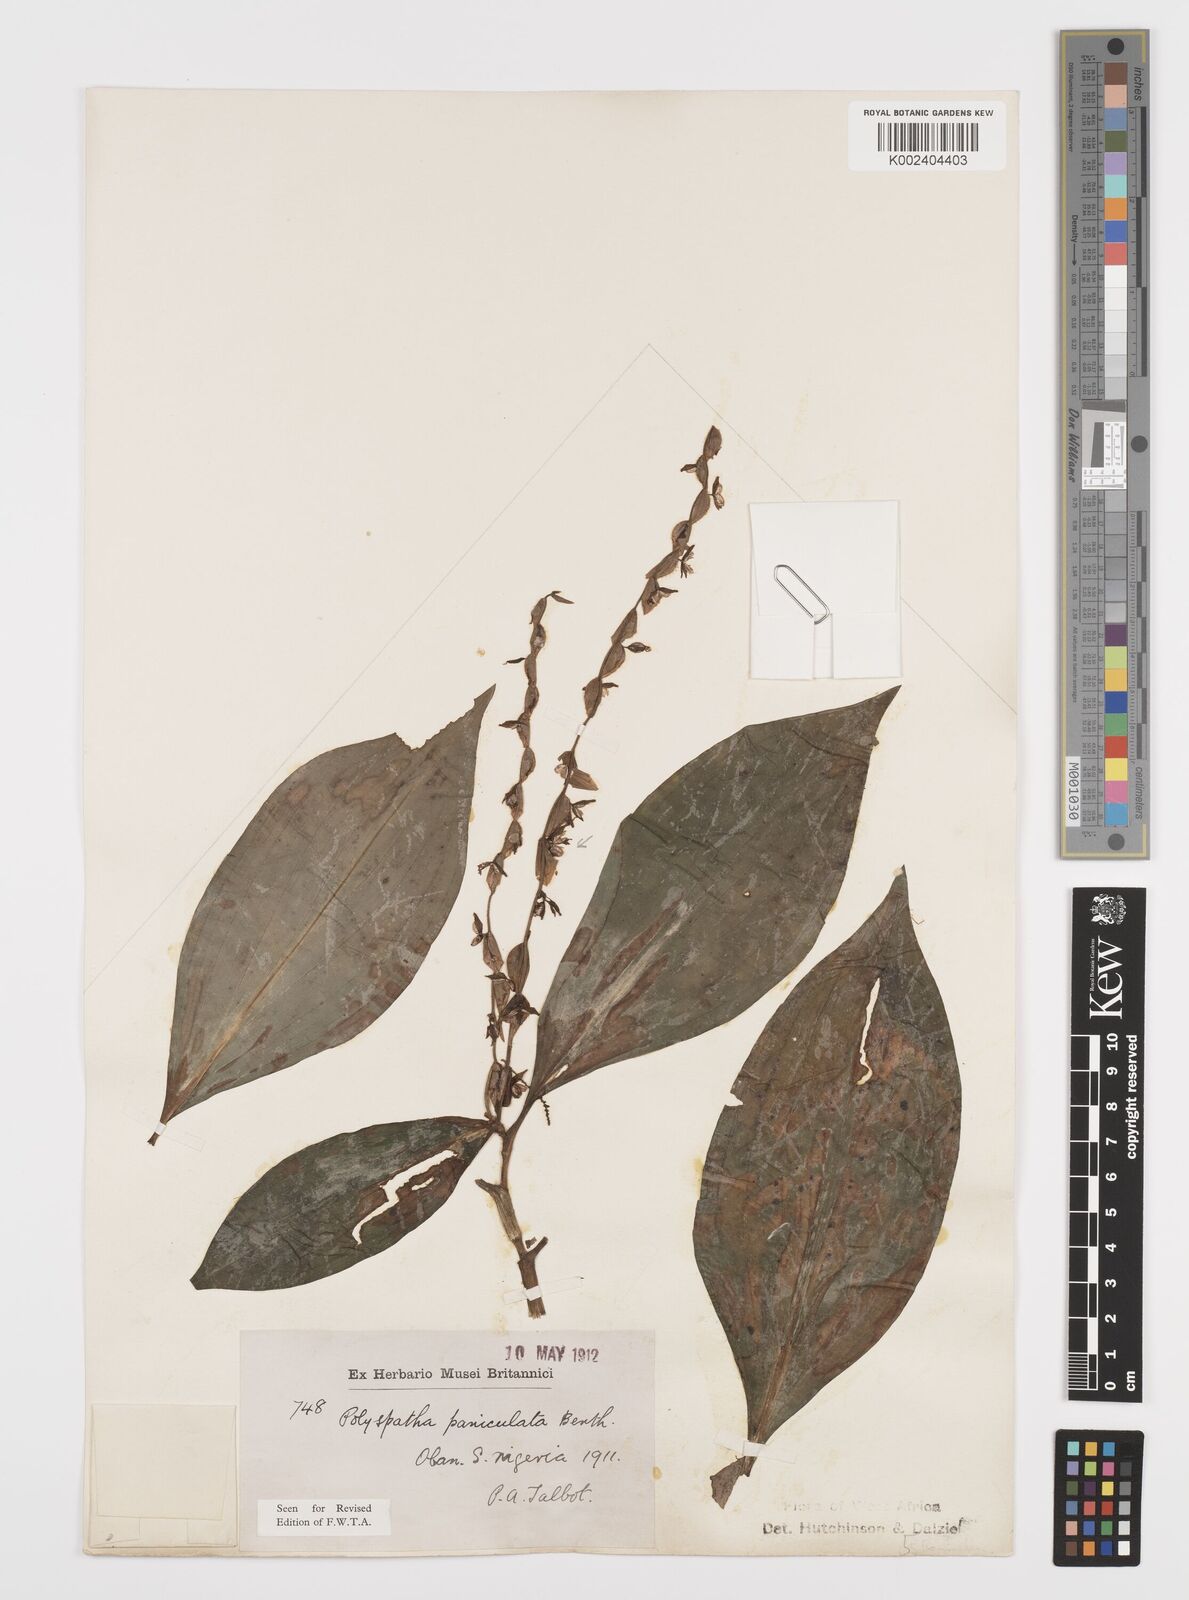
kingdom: Plantae
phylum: Tracheophyta
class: Liliopsida
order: Commelinales
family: Commelinaceae
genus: Polyspatha
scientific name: Polyspatha paniculata
